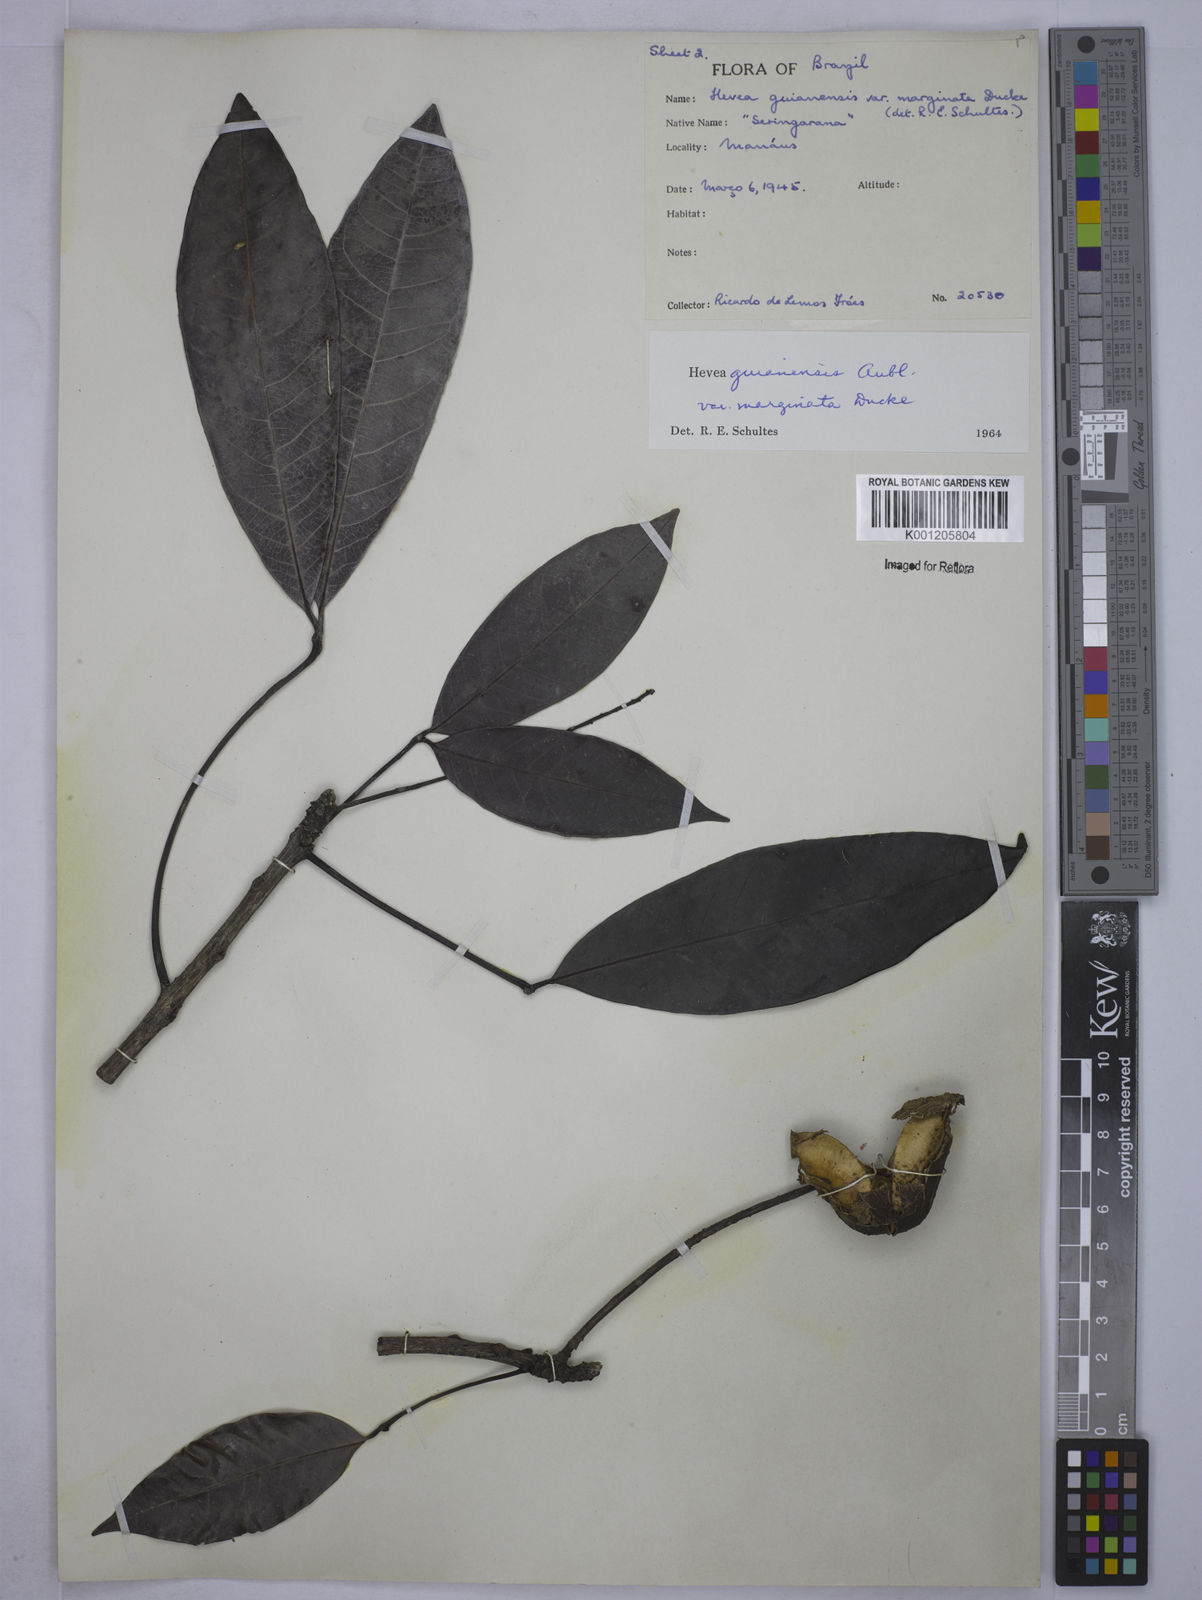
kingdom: Plantae
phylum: Tracheophyta
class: Magnoliopsida
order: Malpighiales
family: Euphorbiaceae
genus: Hevea
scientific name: Hevea guianensis
